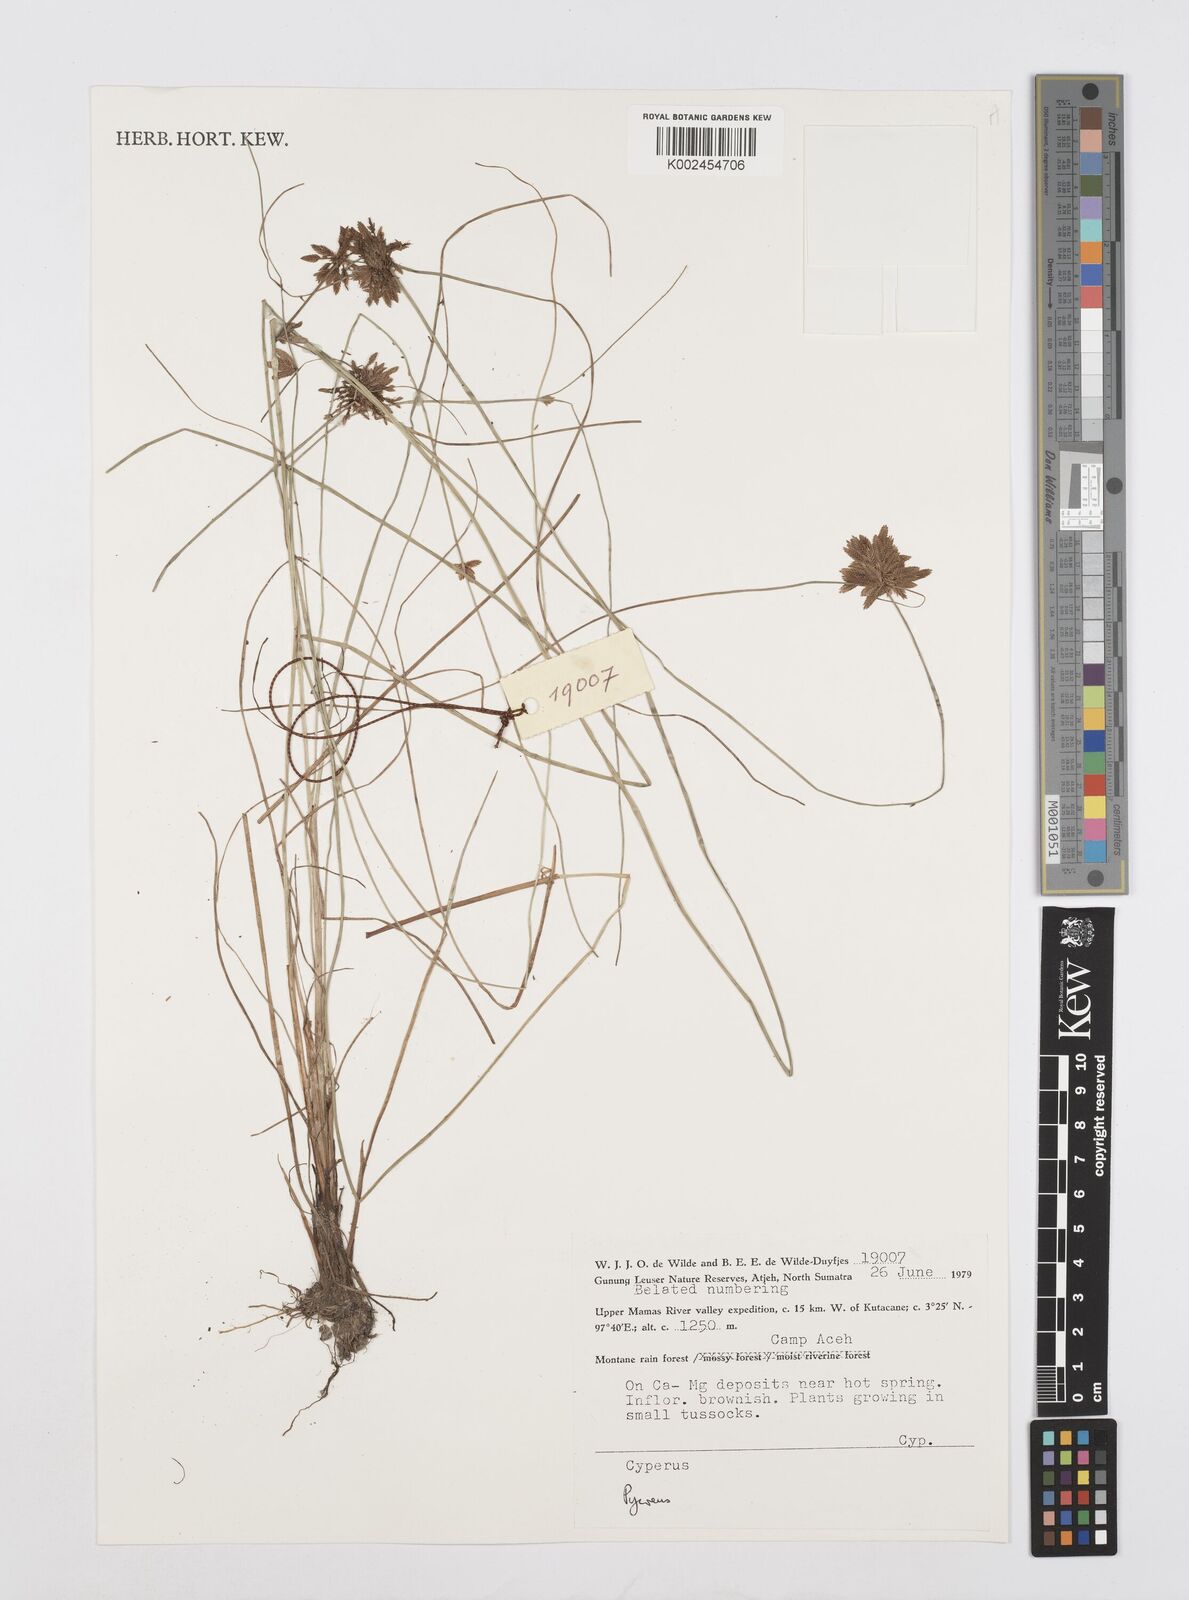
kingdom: Plantae
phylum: Tracheophyta
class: Liliopsida
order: Poales
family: Cyperaceae
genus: Cyperus
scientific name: Cyperus
